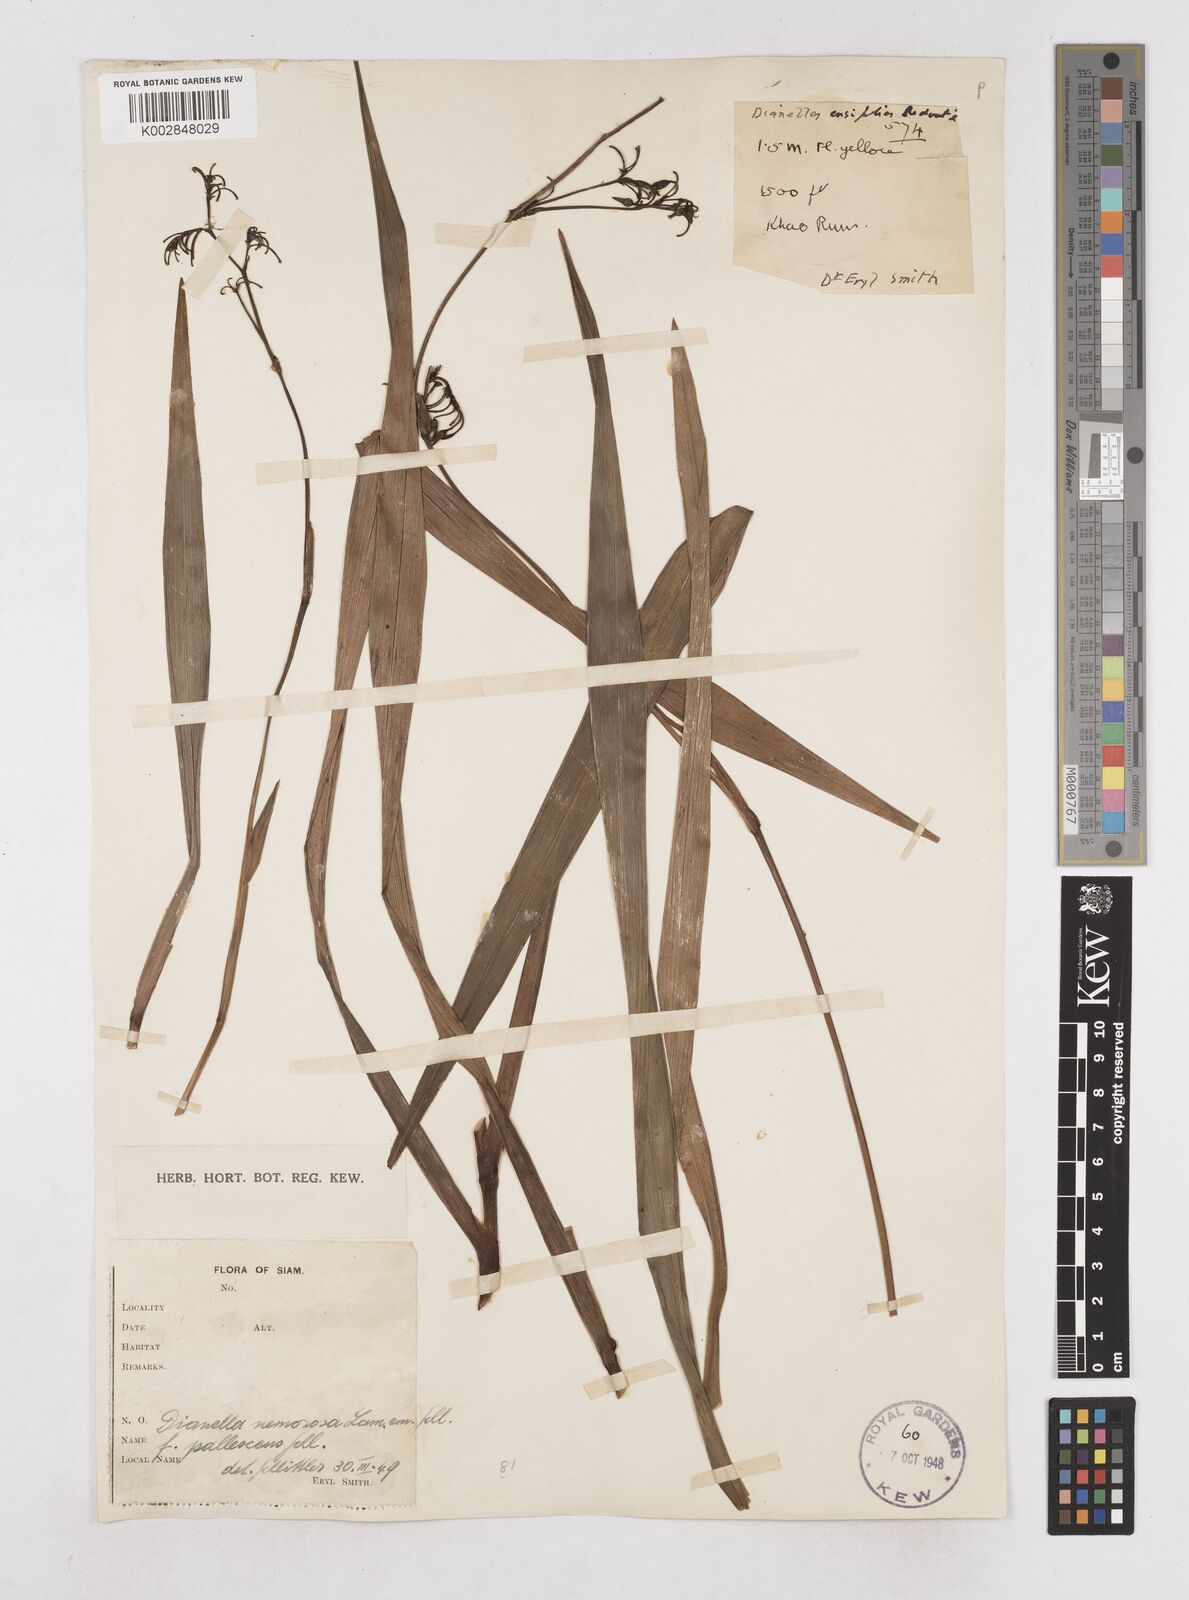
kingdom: Plantae
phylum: Tracheophyta
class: Liliopsida
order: Asparagales
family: Asphodelaceae
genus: Dianella
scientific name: Dianella ensifolia
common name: New zealand lilyplant
